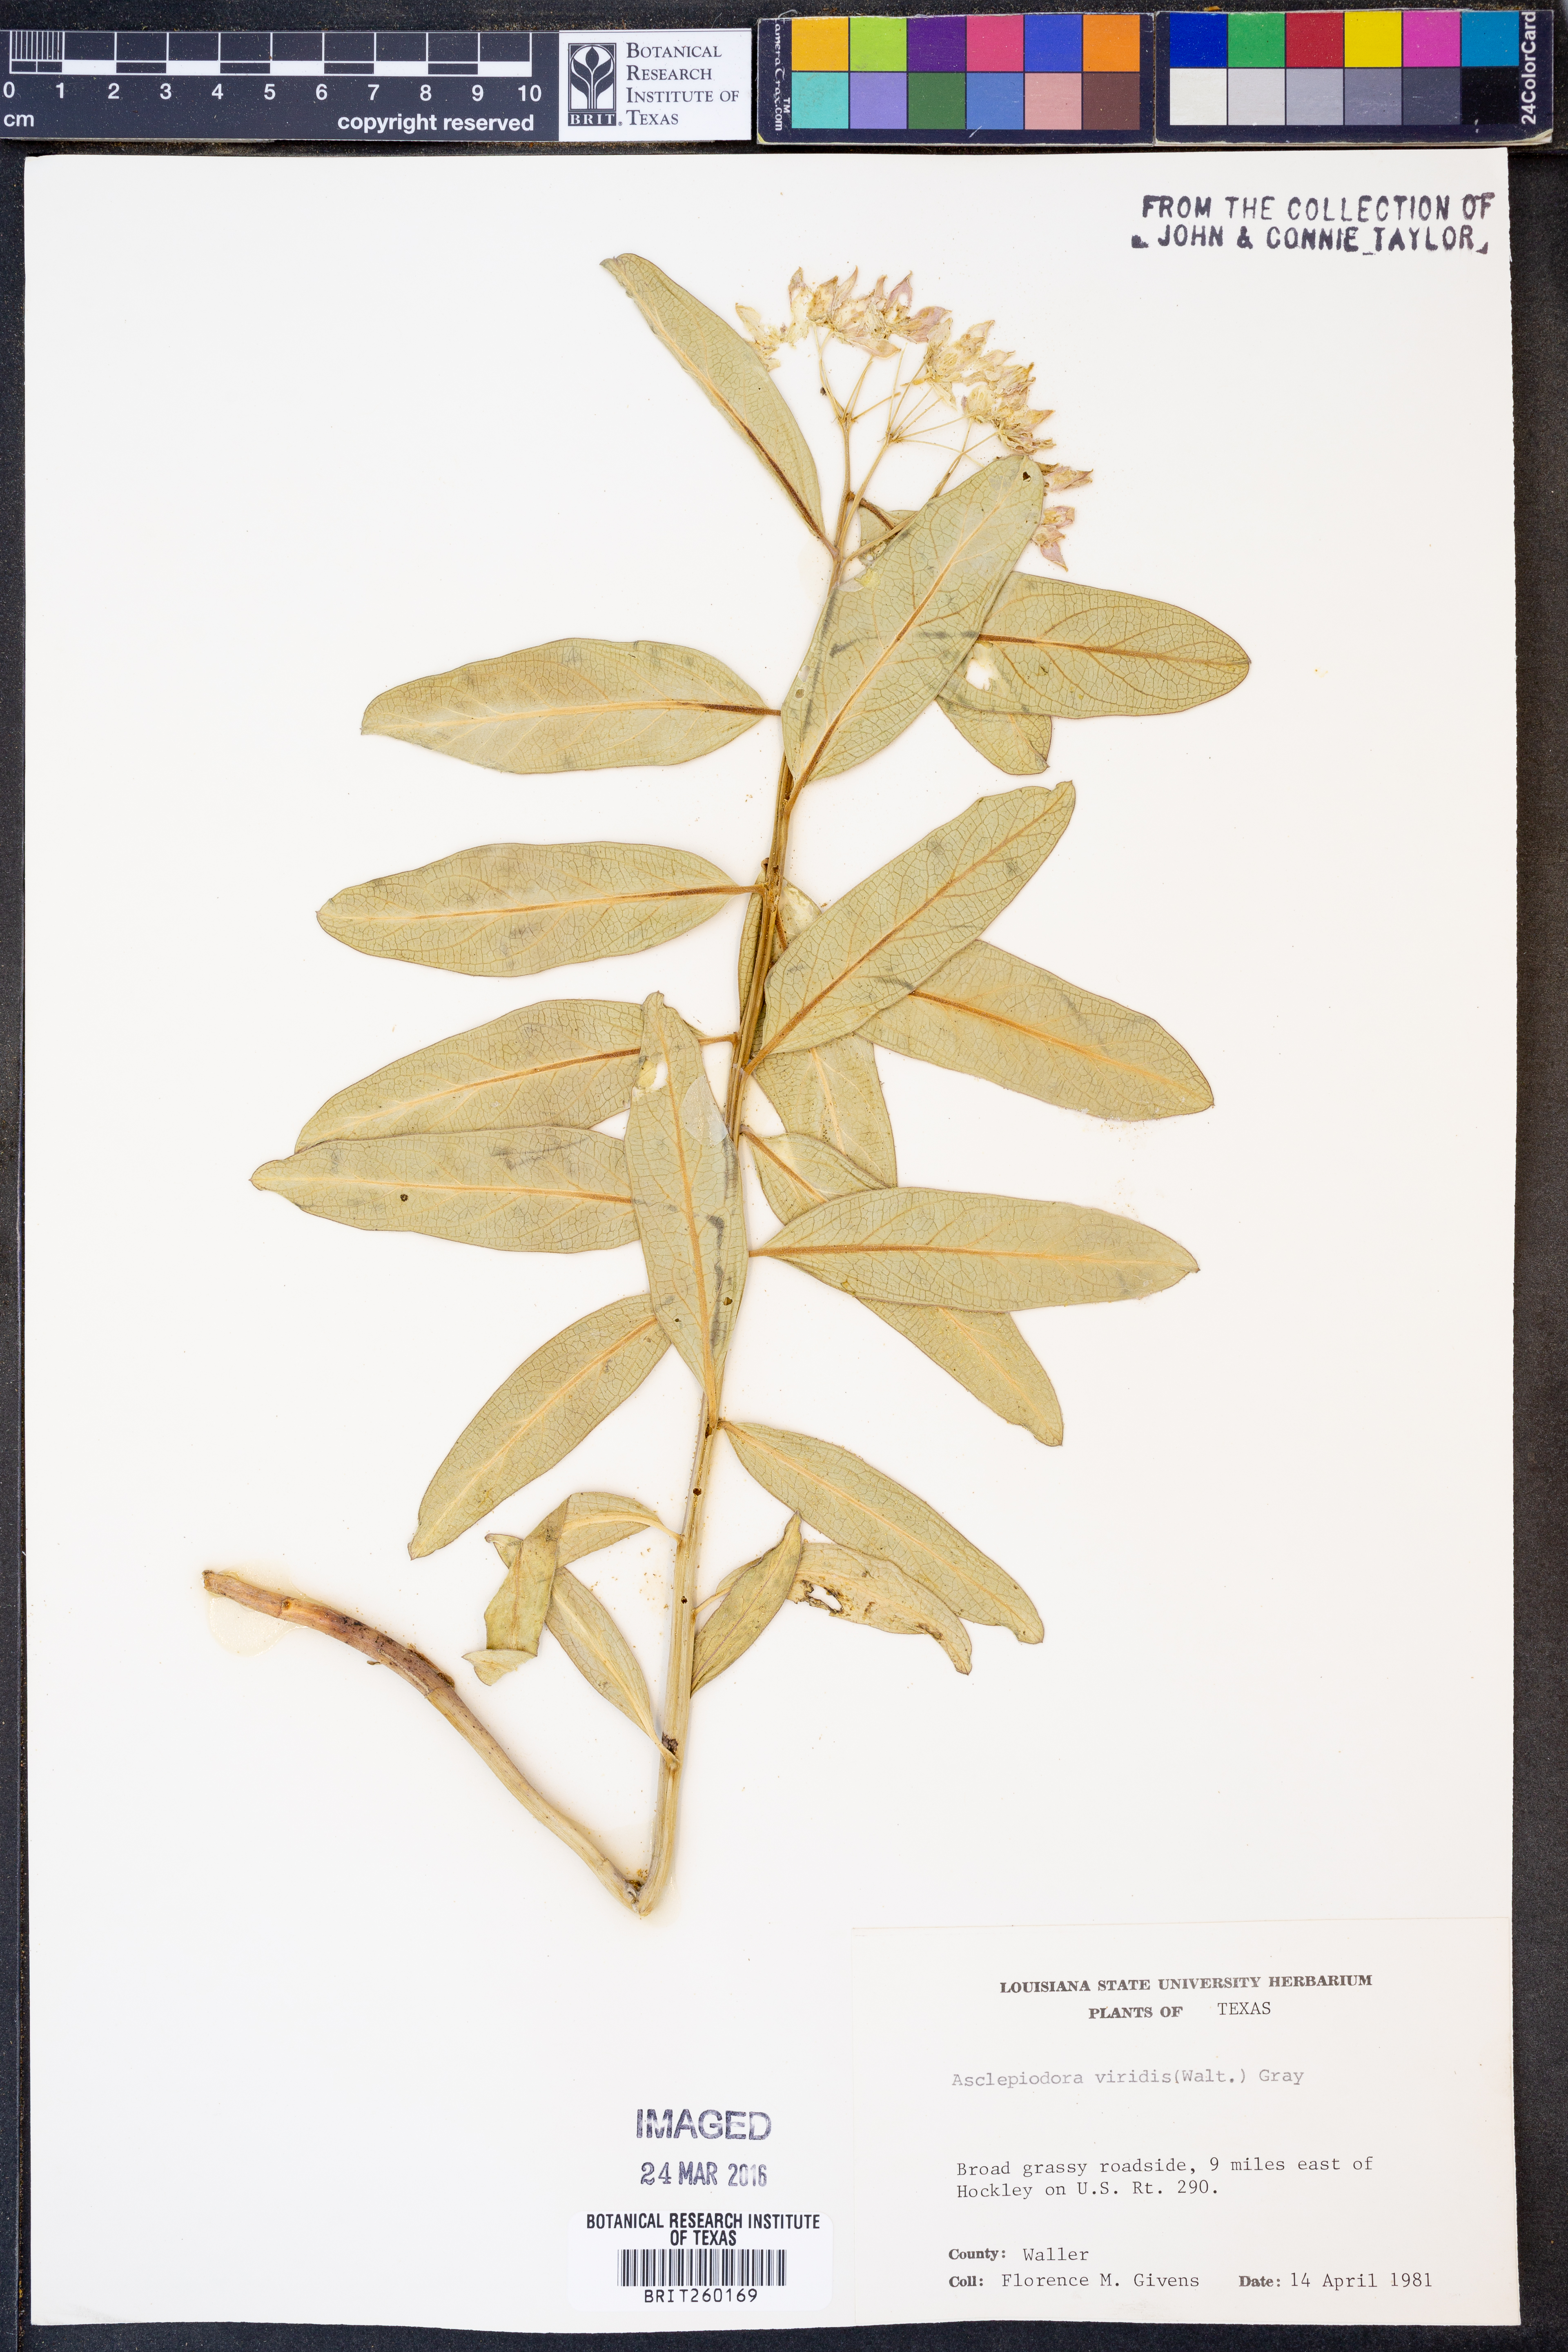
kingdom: Plantae
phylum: Tracheophyta
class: Magnoliopsida
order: Gentianales
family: Apocynaceae
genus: Asclepias
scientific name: Asclepias viridis
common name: Antelope-horns
